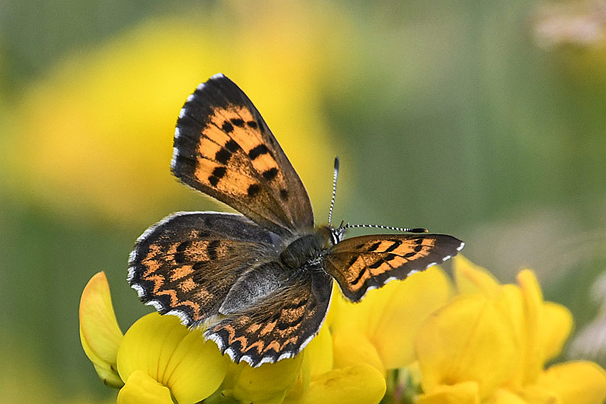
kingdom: Animalia
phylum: Arthropoda
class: Insecta
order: Lepidoptera
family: Lycaenidae
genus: Lycaena
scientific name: Lycaena mariposa
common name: Mariposa Copper
